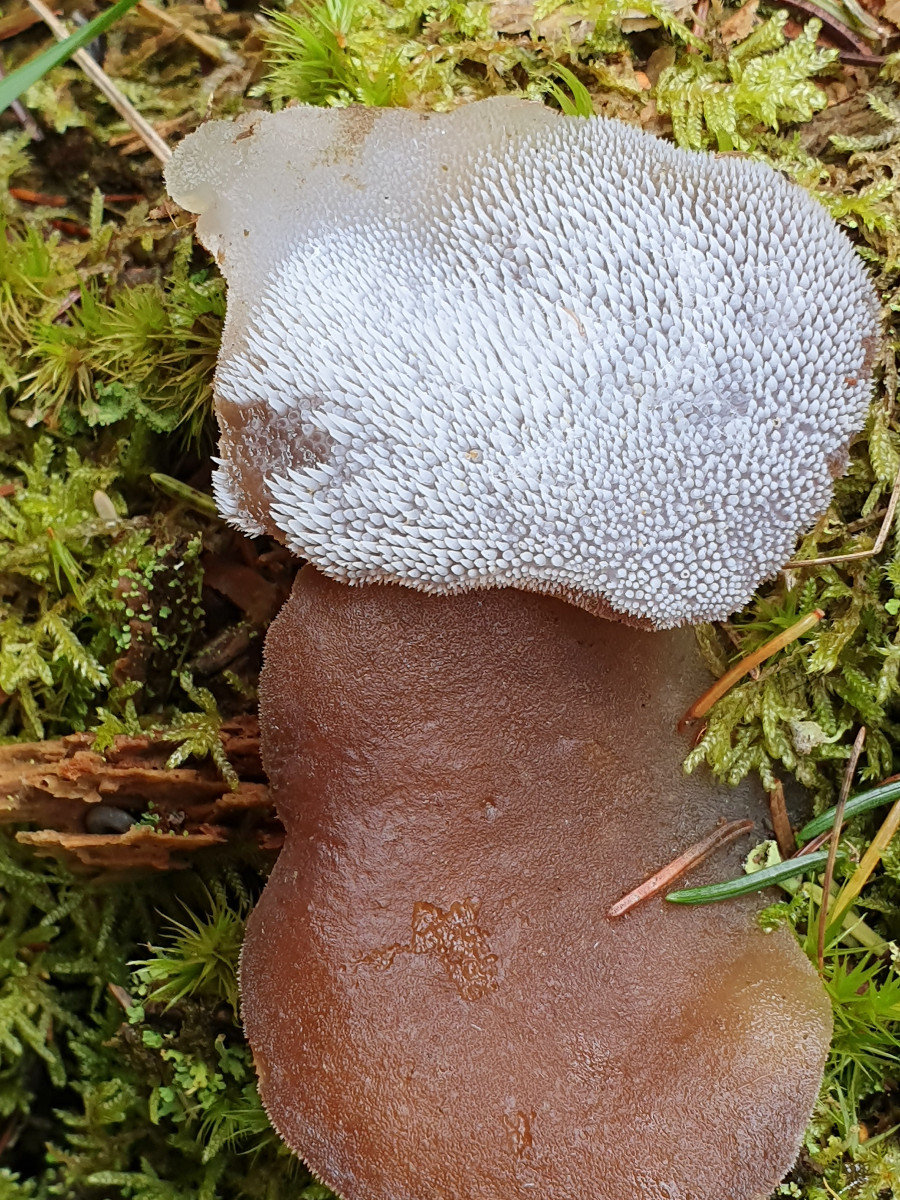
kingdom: Fungi
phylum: Basidiomycota
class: Agaricomycetes
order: Auriculariales
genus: Pseudohydnum
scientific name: Pseudohydnum gelatinosum
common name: bævretand
